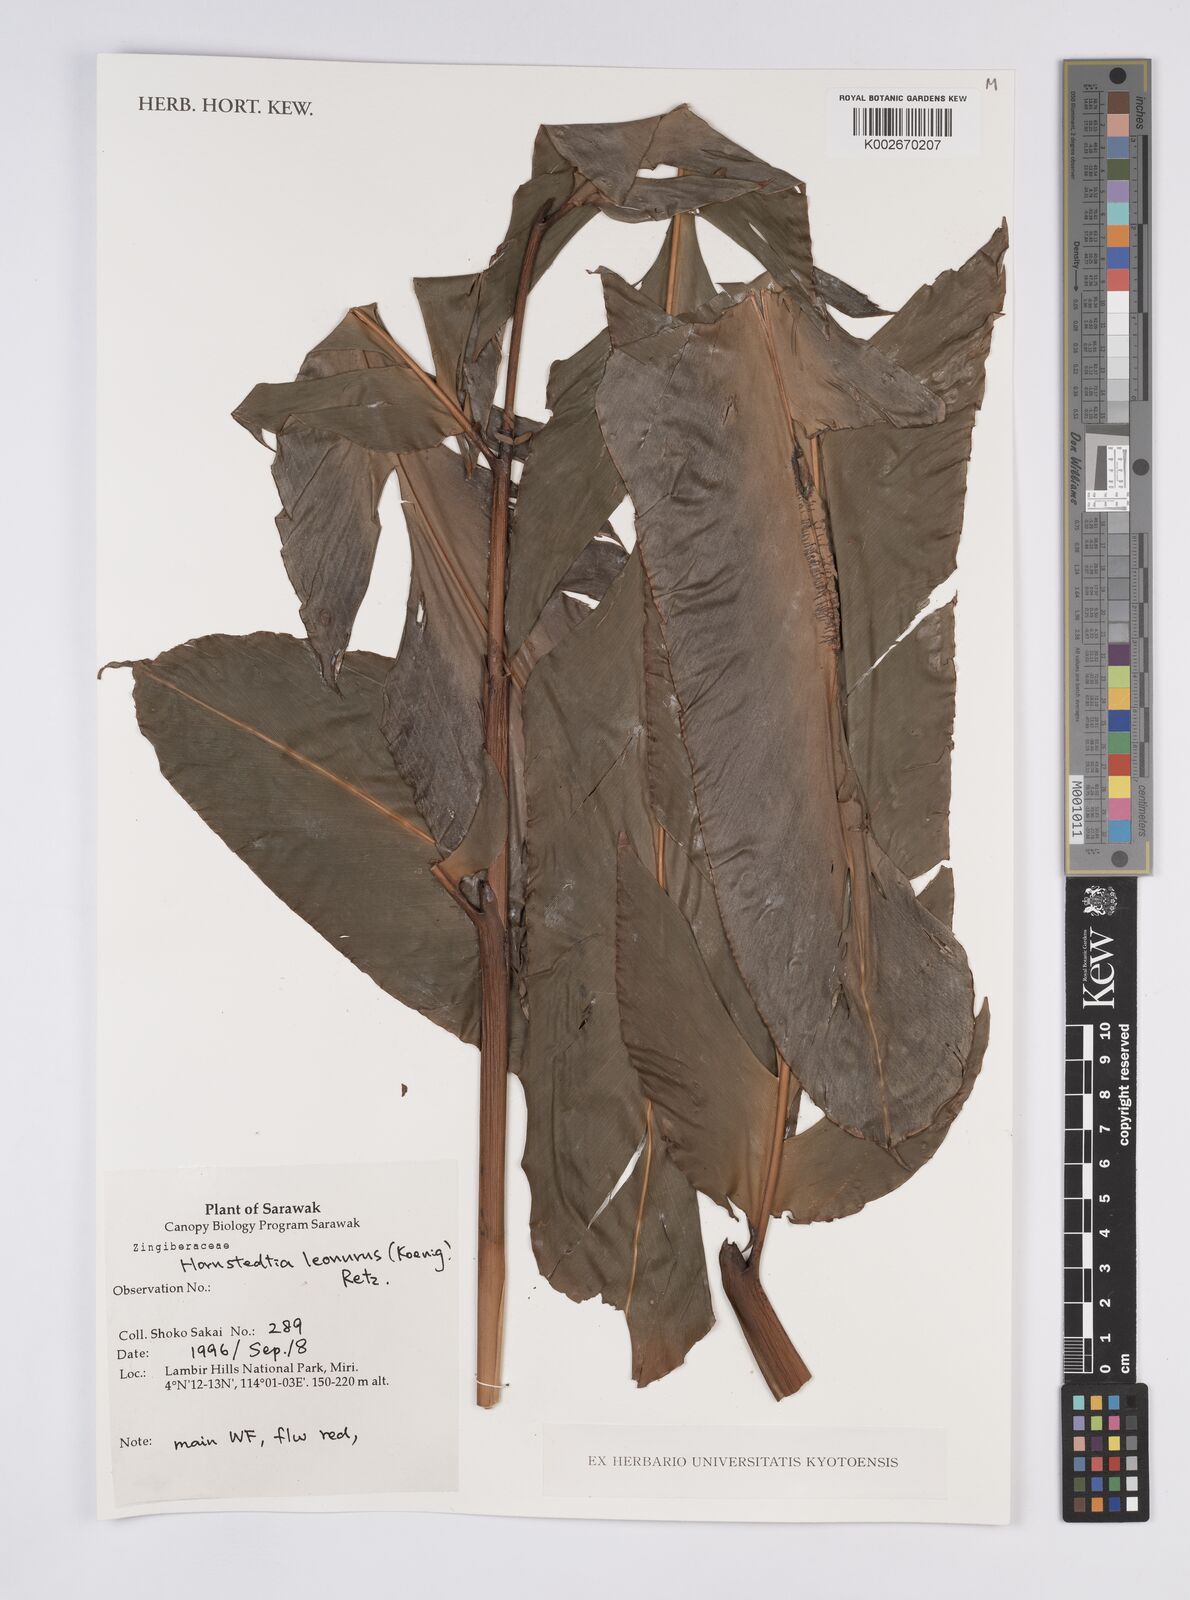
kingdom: Plantae
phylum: Tracheophyta
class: Liliopsida
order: Zingiberales
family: Zingiberaceae
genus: Hornstedtia
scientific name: Hornstedtia leonurus
